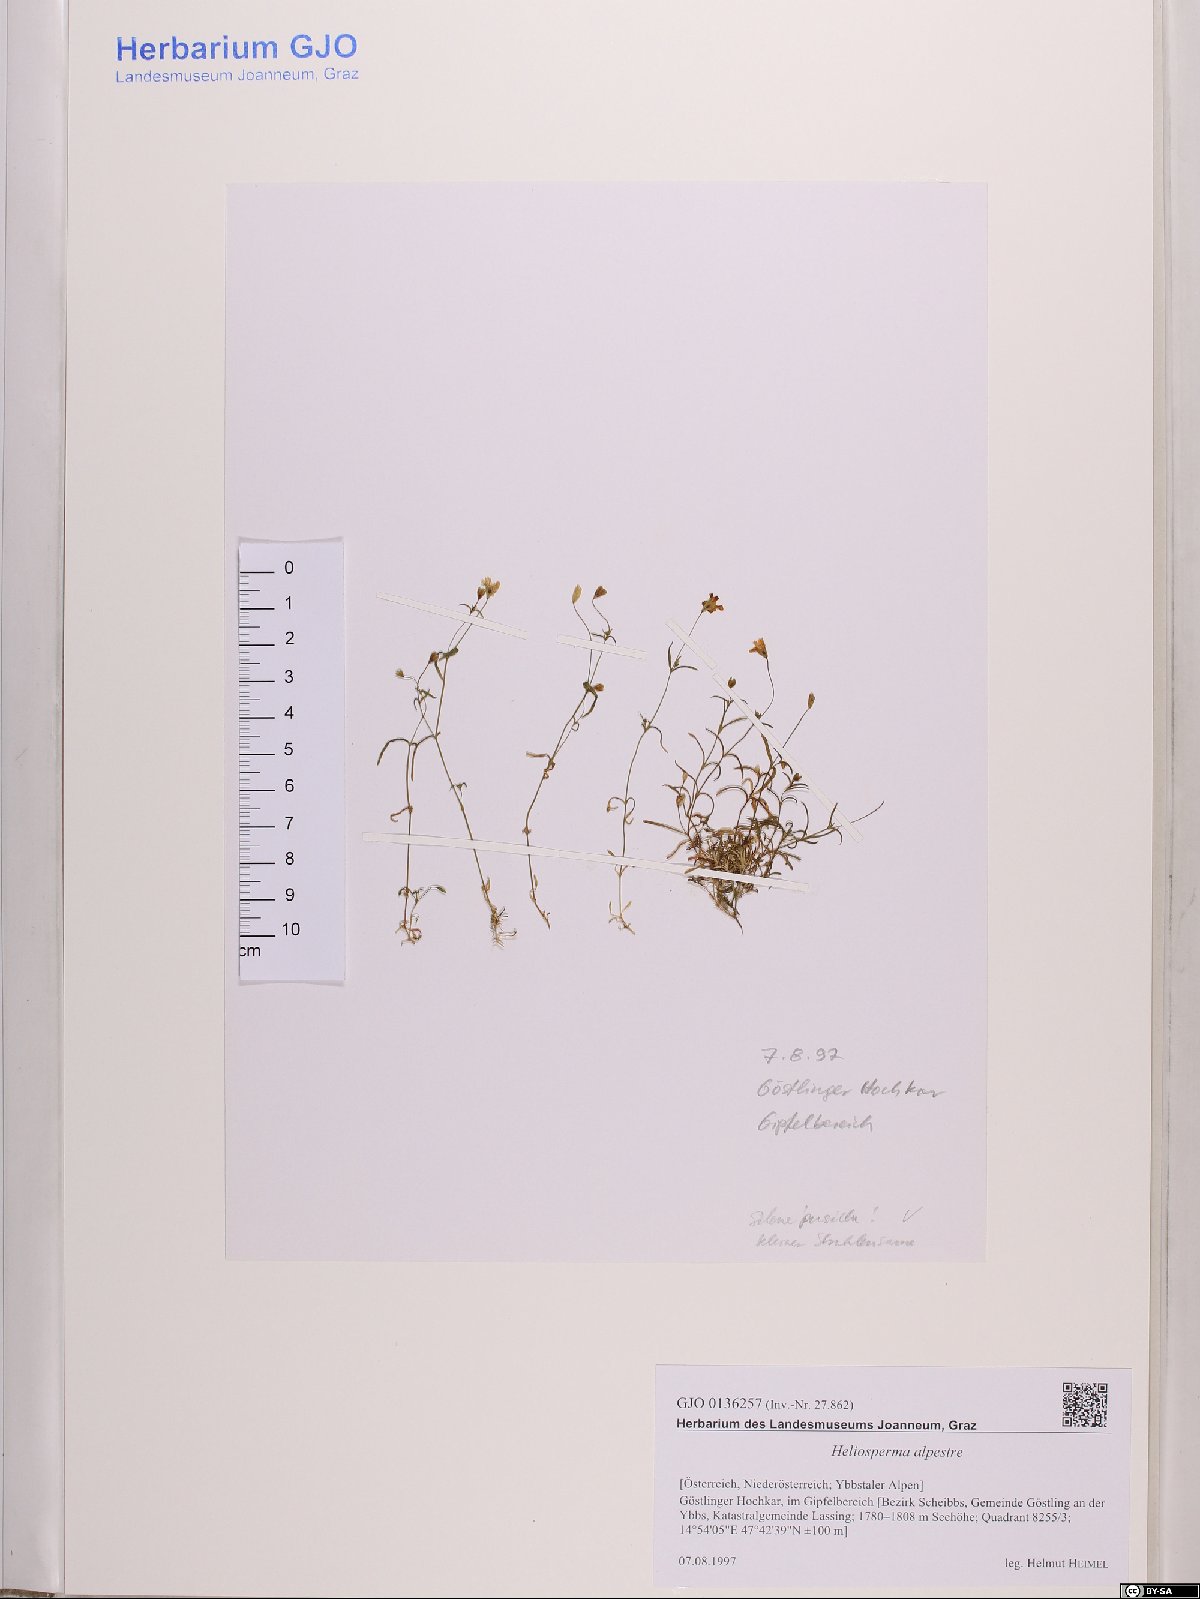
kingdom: Plantae
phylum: Tracheophyta
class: Magnoliopsida
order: Caryophyllales
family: Caryophyllaceae
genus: Heliosperma
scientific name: Heliosperma alpestre
